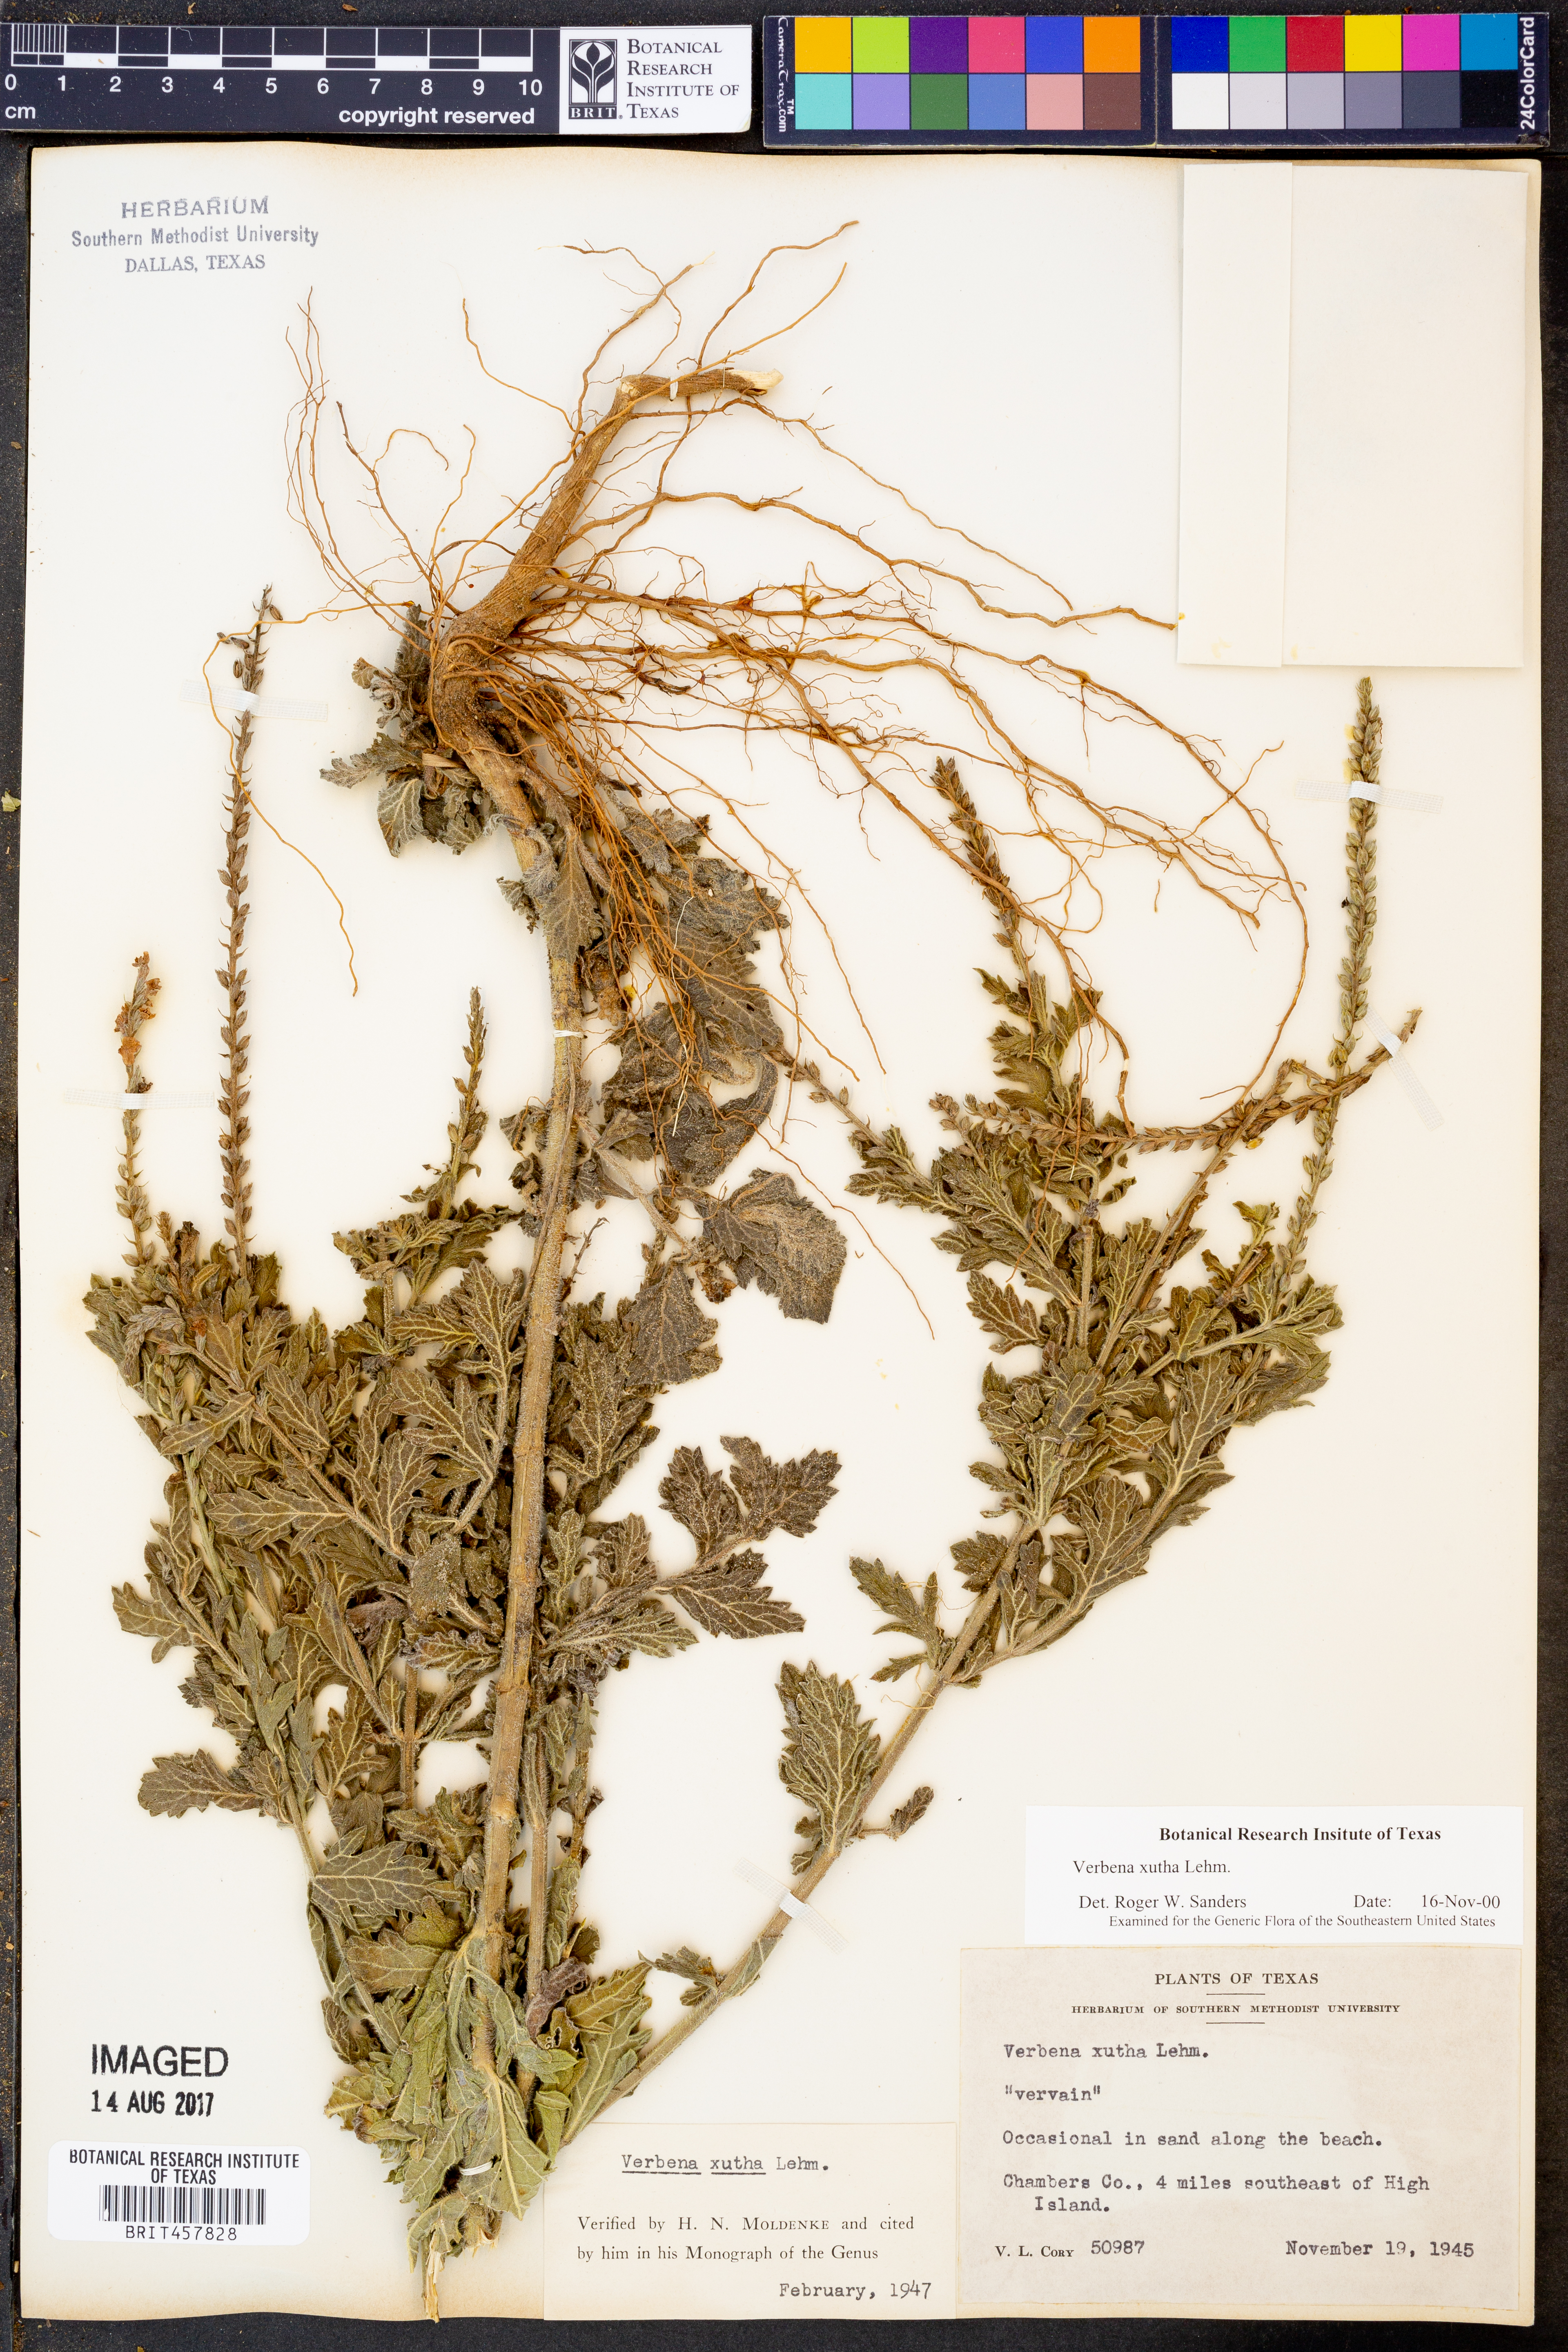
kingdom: Plantae
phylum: Tracheophyta
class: Magnoliopsida
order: Lamiales
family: Verbenaceae
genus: Verbena
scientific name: Verbena xutha
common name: Gulf vervain
